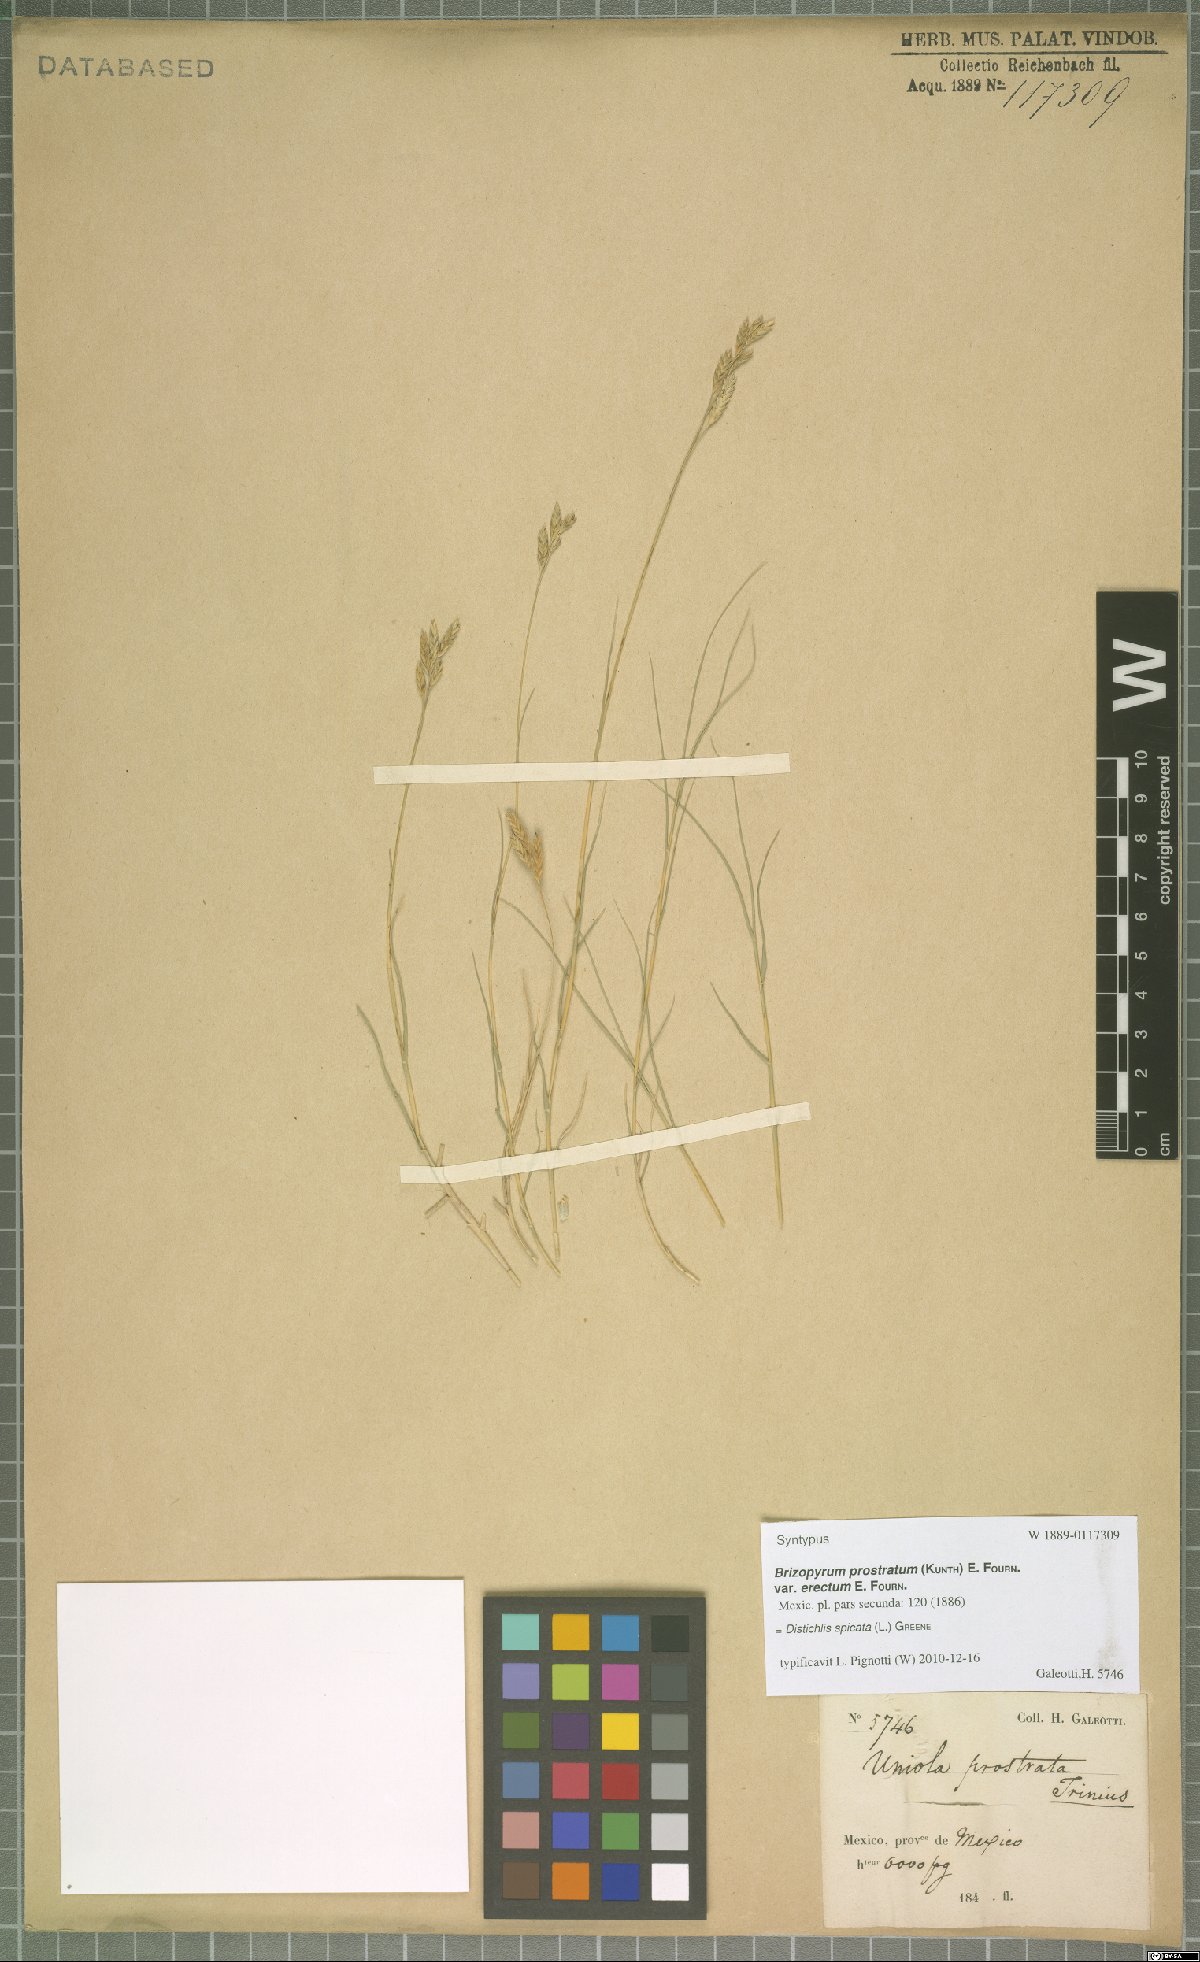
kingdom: Plantae
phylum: Tracheophyta
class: Liliopsida
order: Poales
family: Poaceae
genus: Distichlis
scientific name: Distichlis spicata
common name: Saltgrass
